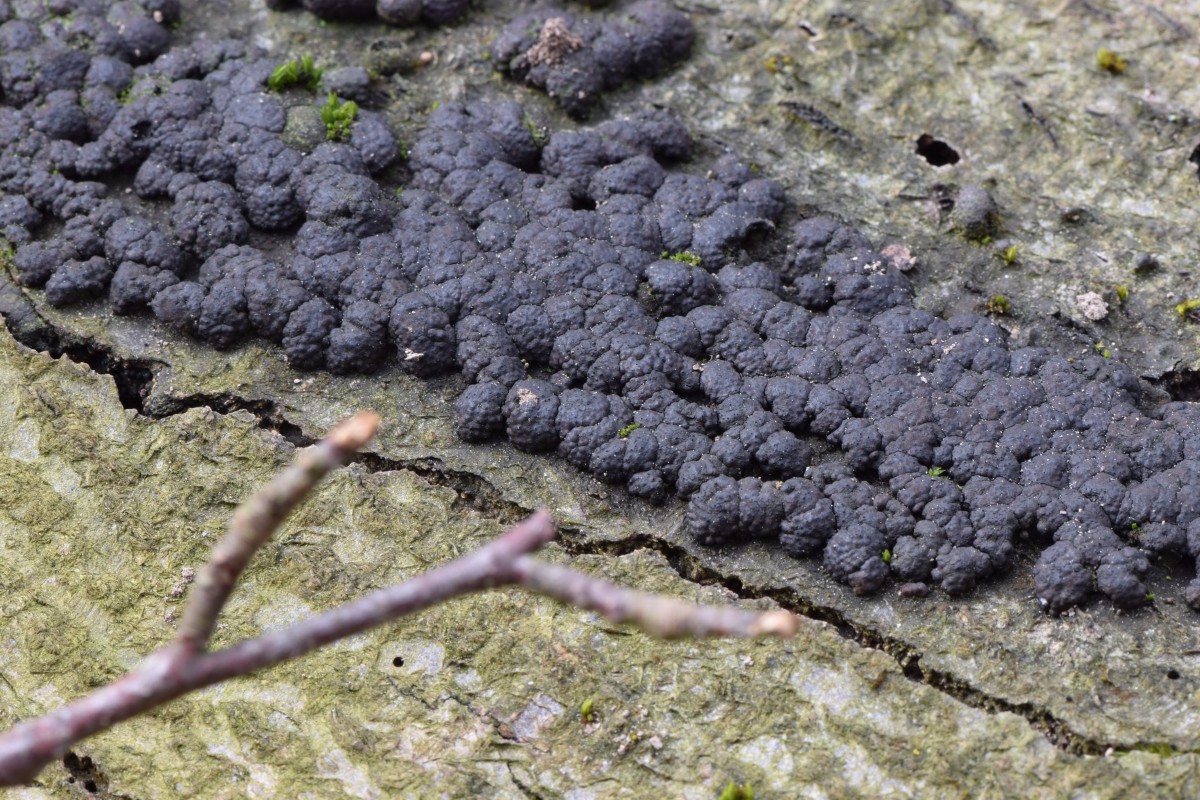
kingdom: Fungi
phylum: Ascomycota
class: Sordariomycetes
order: Xylariales
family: Hypoxylaceae
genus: Jackrogersella
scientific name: Jackrogersella cohaerens
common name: sammenflydende kulbær
